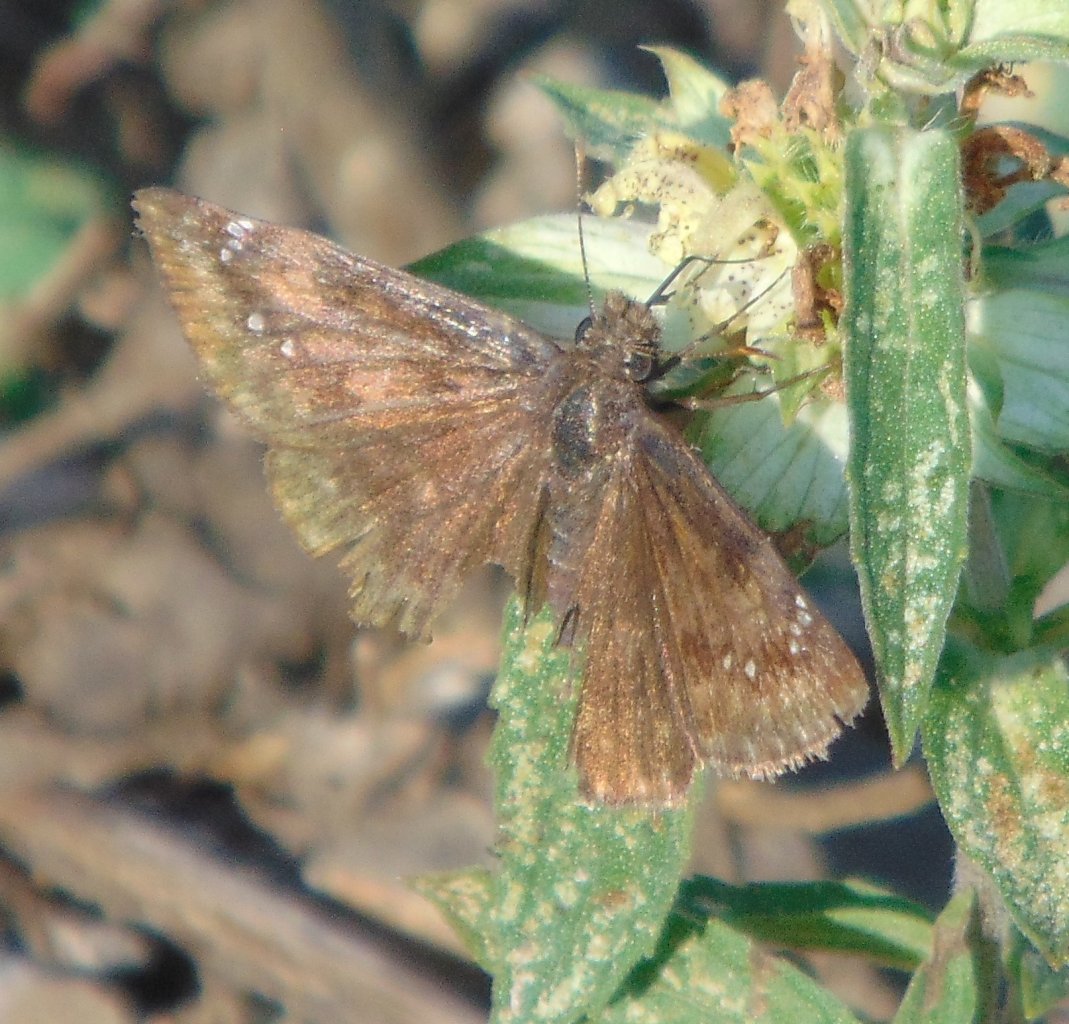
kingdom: Animalia
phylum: Arthropoda
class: Insecta
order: Lepidoptera
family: Hesperiidae
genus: Gesta
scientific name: Gesta
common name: Wild Indigo Duskywing
